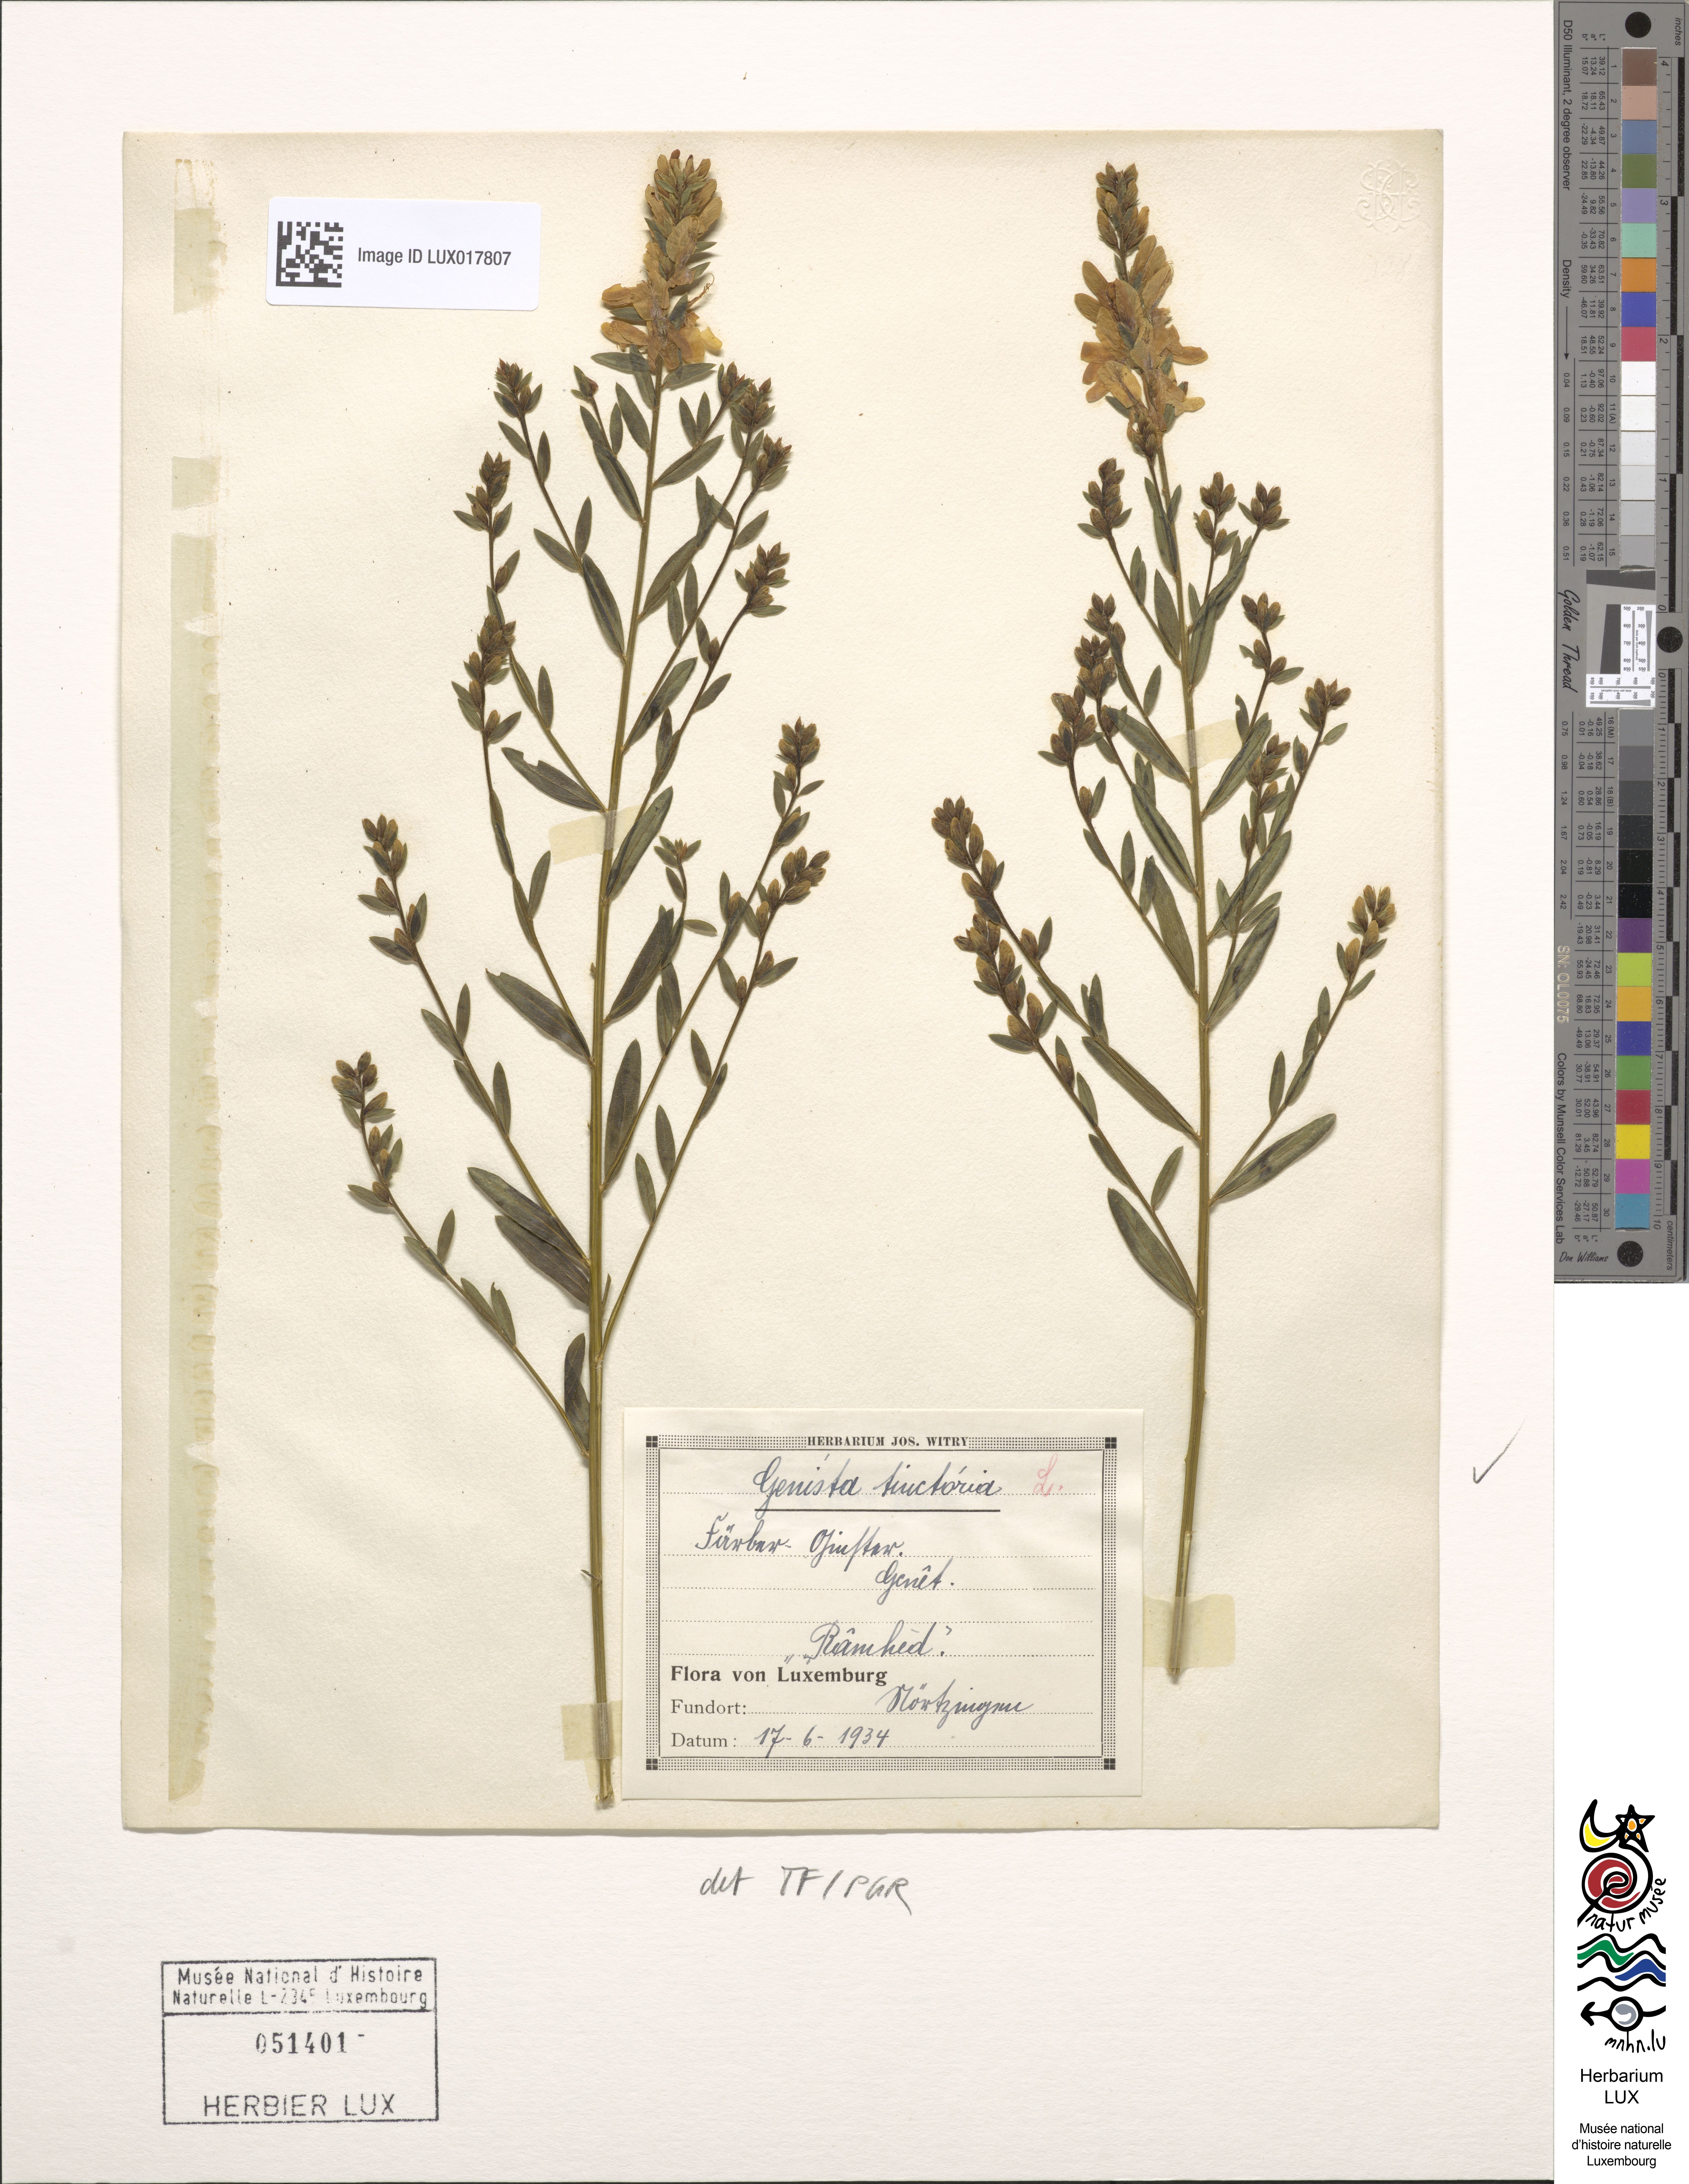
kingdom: Plantae
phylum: Tracheophyta
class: Magnoliopsida
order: Fabales
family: Fabaceae
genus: Genista
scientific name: Genista tinctoria
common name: Dyer's greenweed
